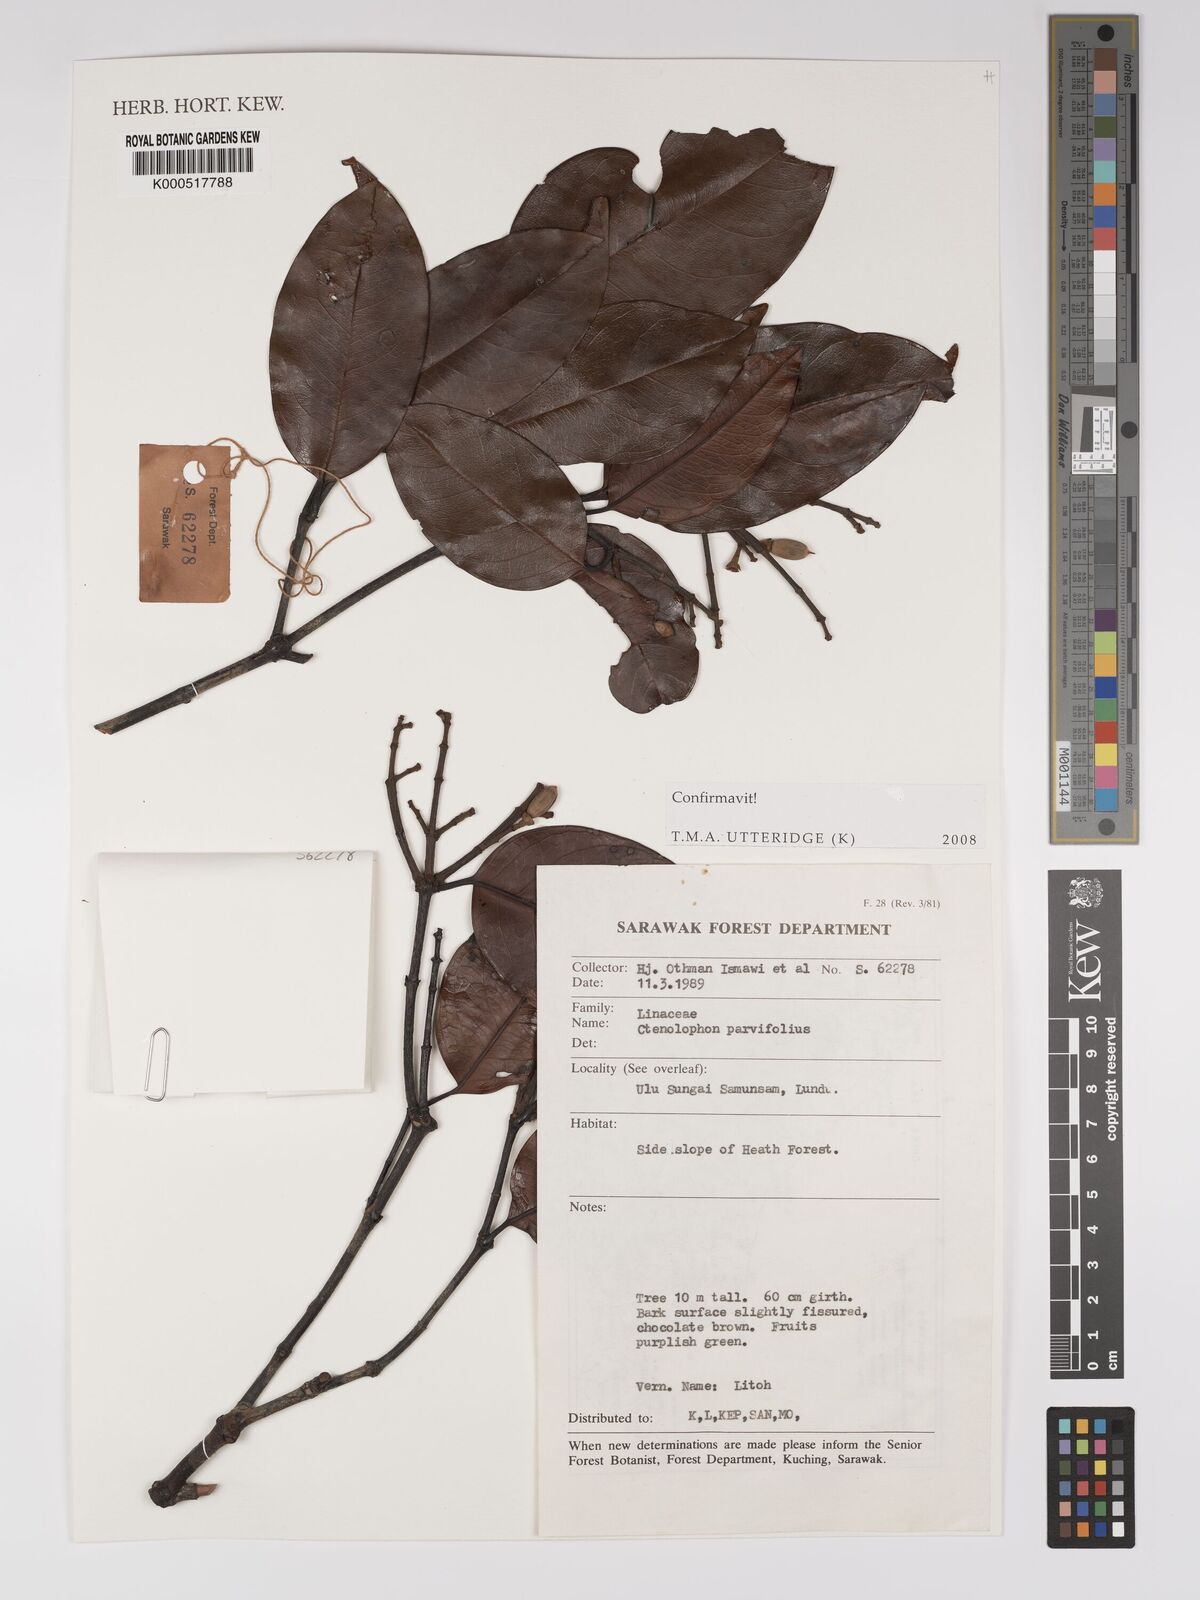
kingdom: Plantae
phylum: Tracheophyta
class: Magnoliopsida
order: Malpighiales
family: Ctenolophonaceae
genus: Ctenolophon
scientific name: Ctenolophon parvifolius
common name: Mertas
